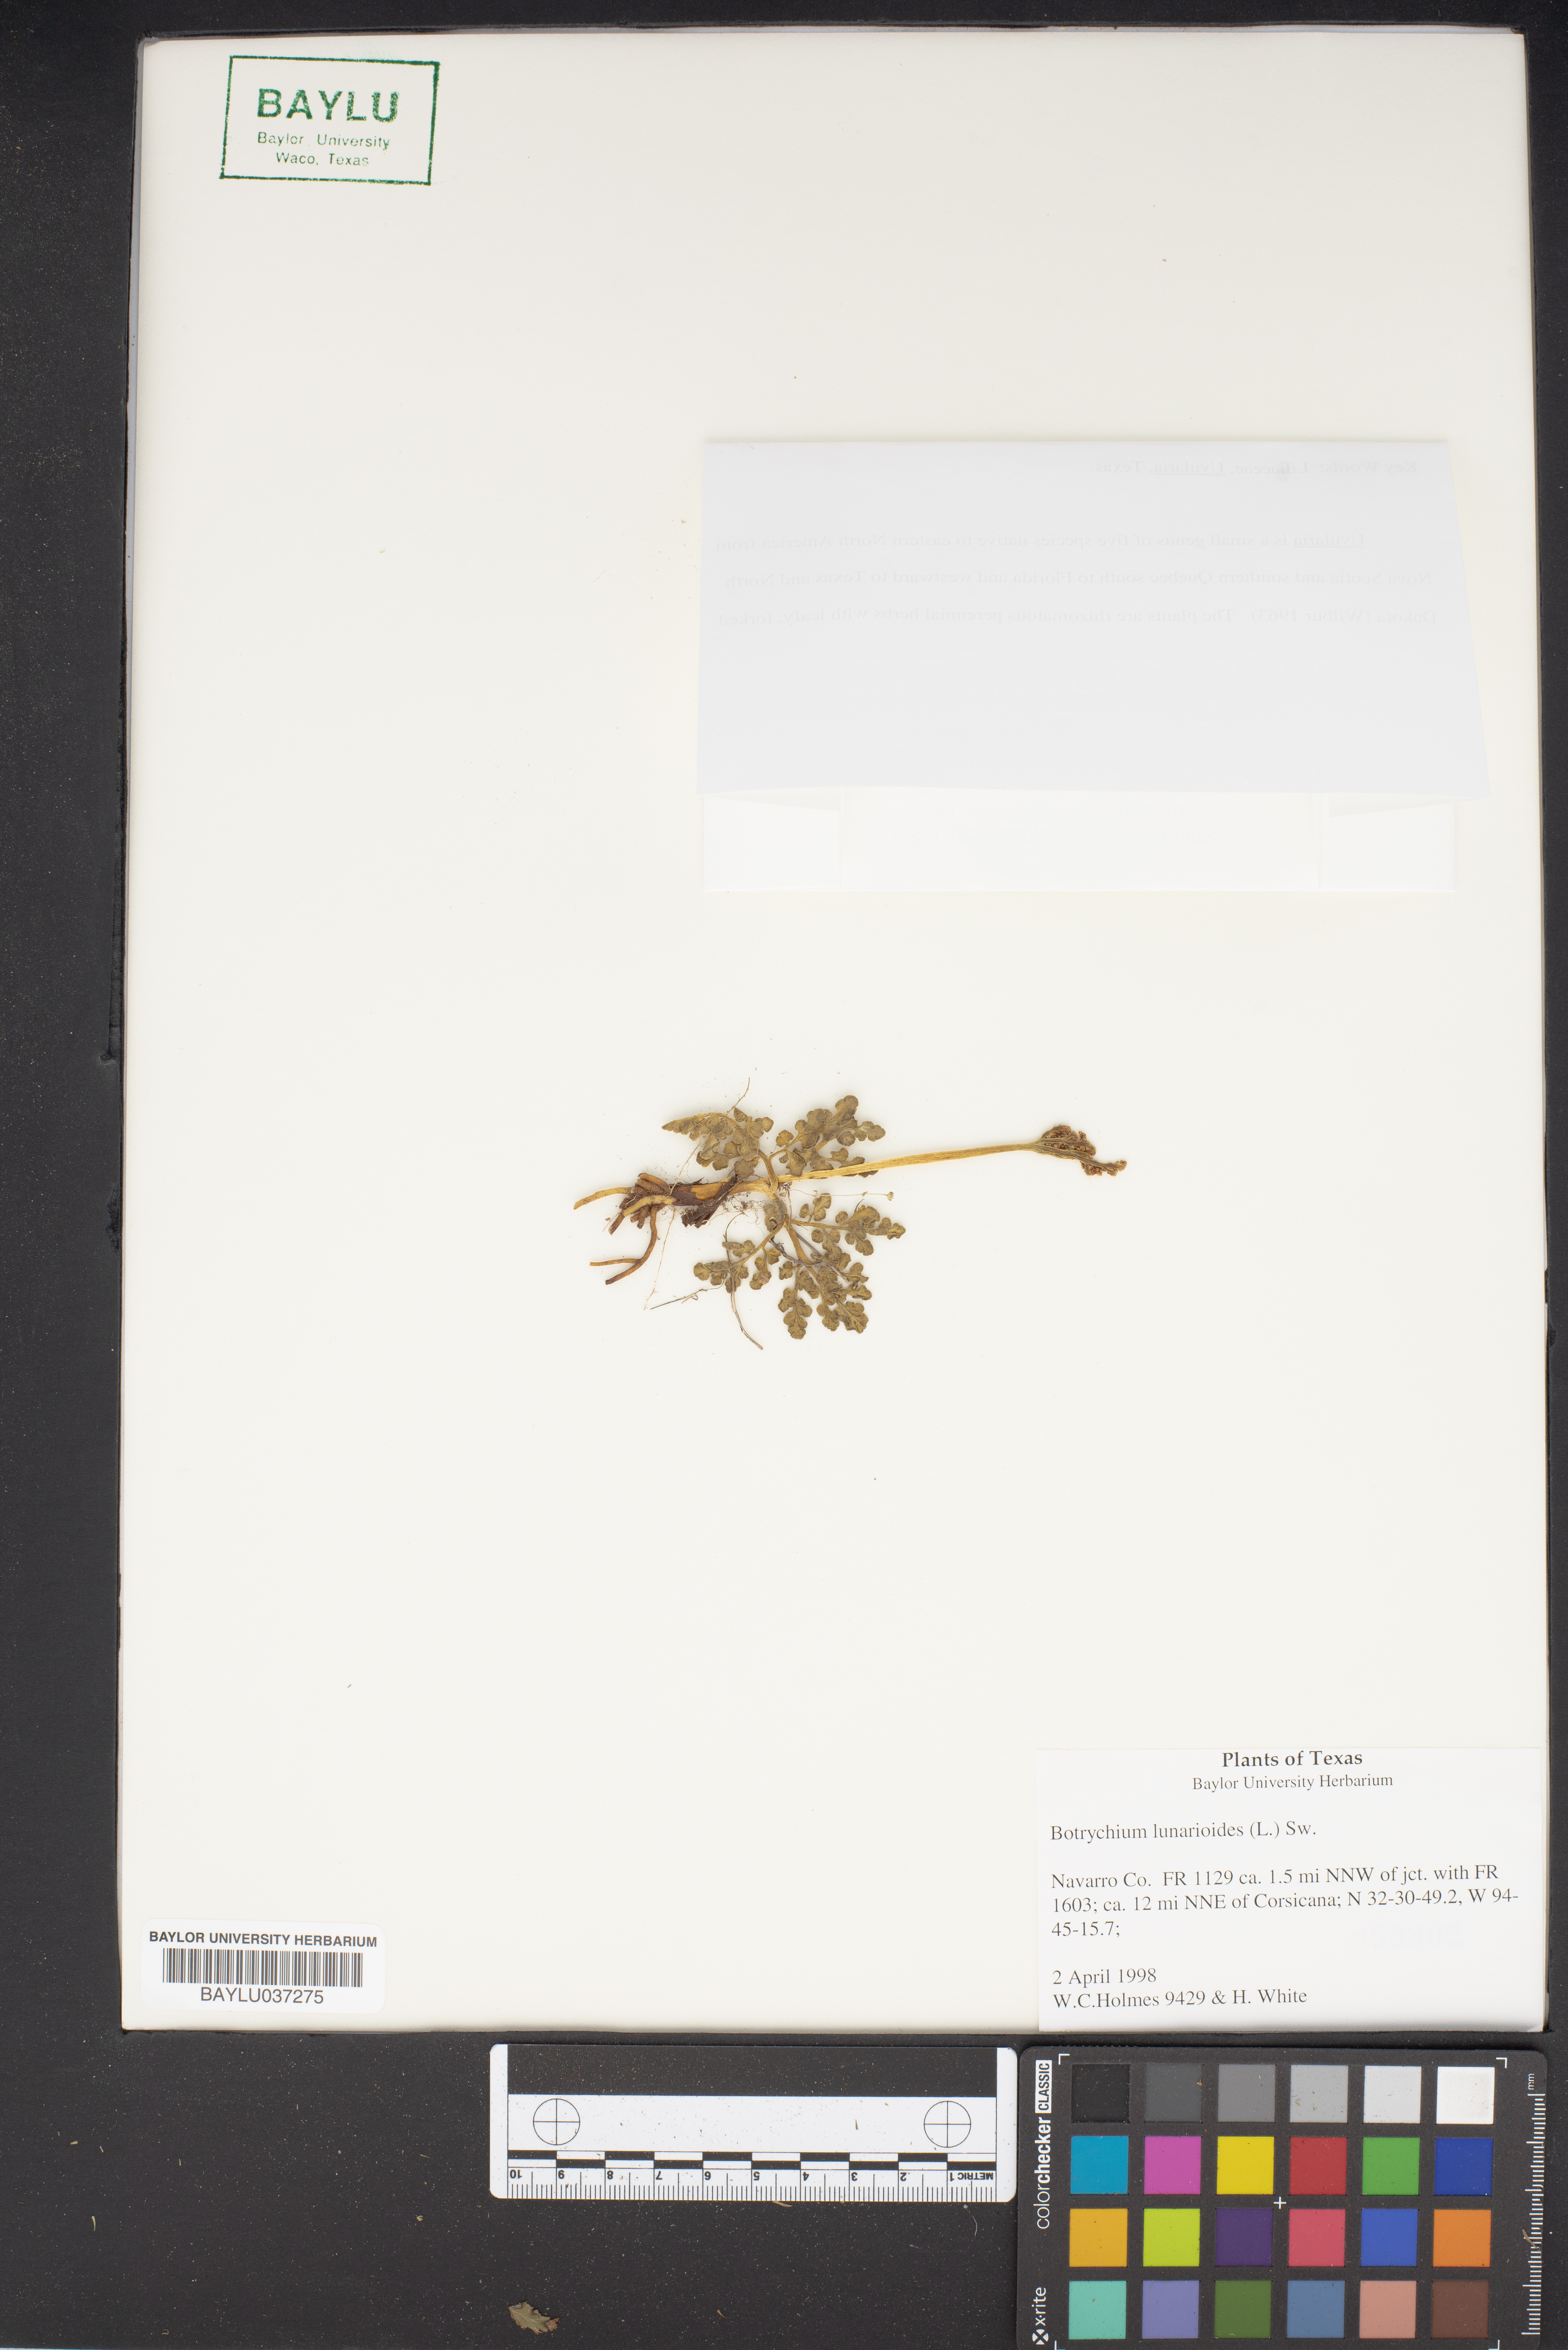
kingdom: Plantae
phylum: Tracheophyta
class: Polypodiopsida
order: Ophioglossales
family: Ophioglossaceae
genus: Sceptridium
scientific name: Sceptridium lunarioides
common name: Prostrate grapefern
